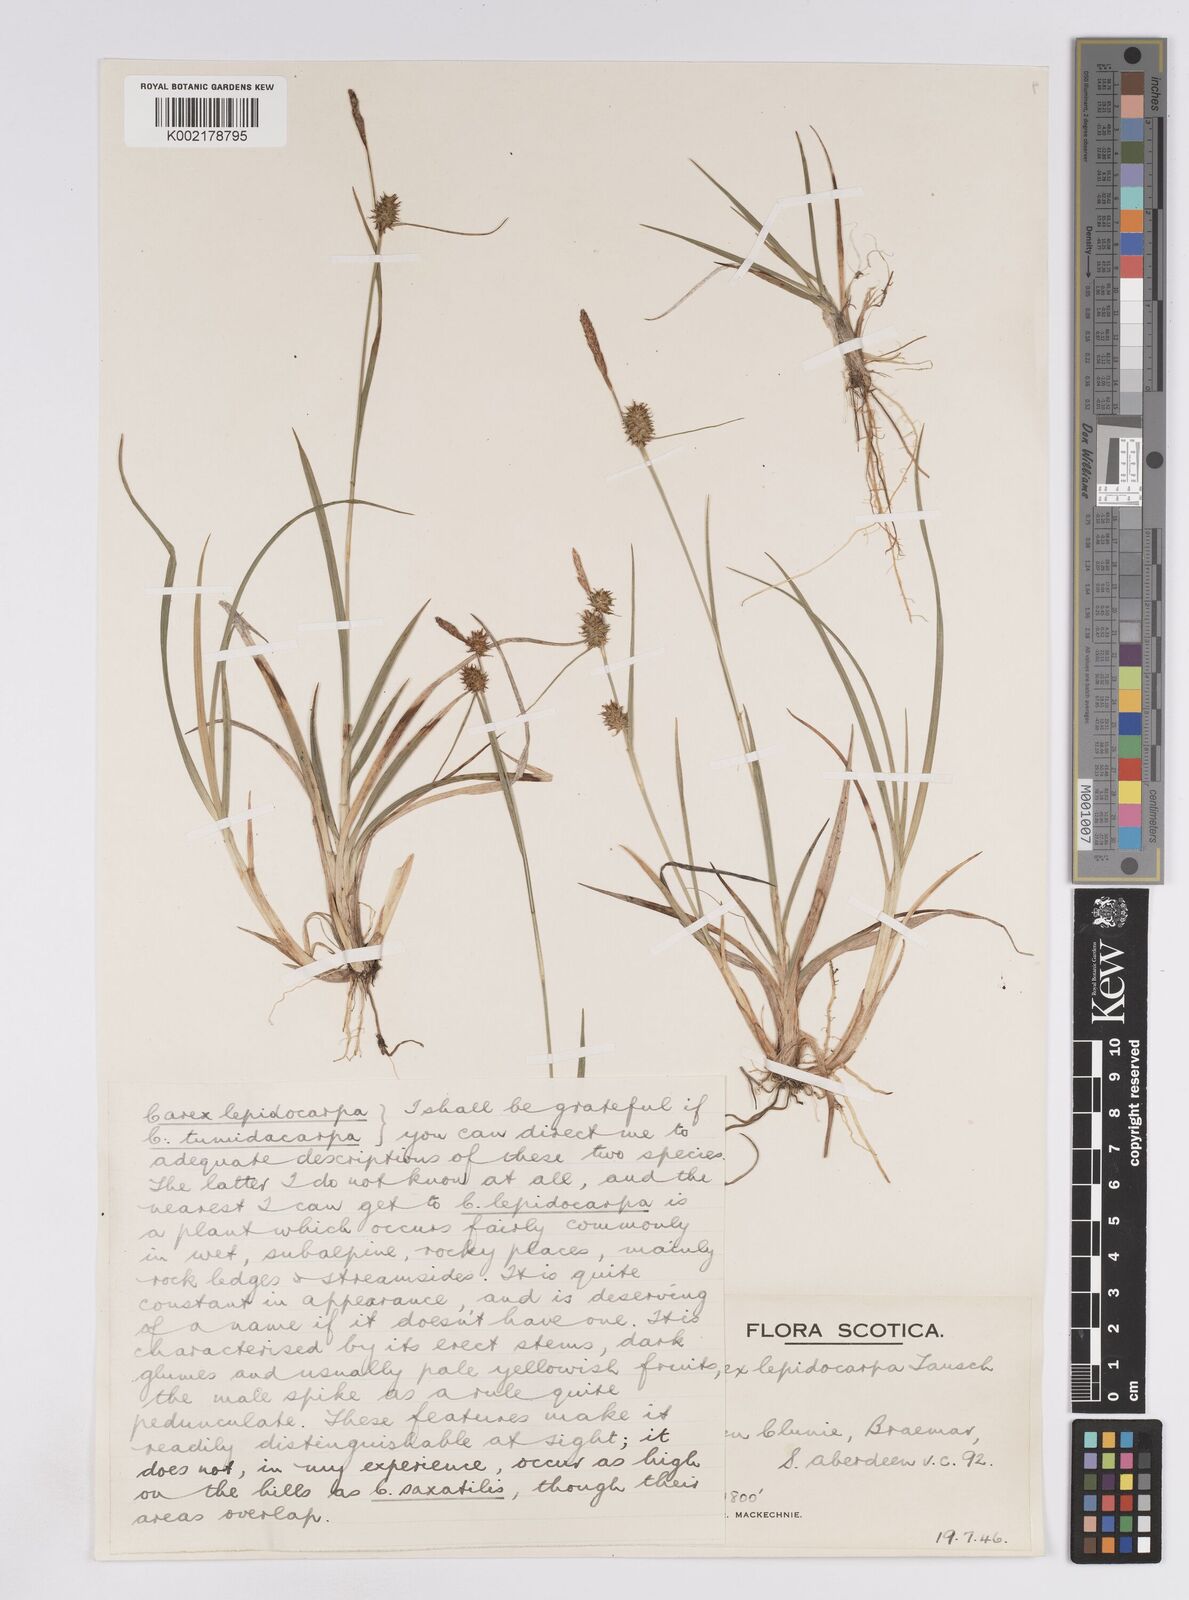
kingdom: Plantae
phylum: Tracheophyta
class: Liliopsida
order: Poales
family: Cyperaceae
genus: Carex
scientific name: Carex lepidocarpa
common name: Long-stalked yellow-sedge
